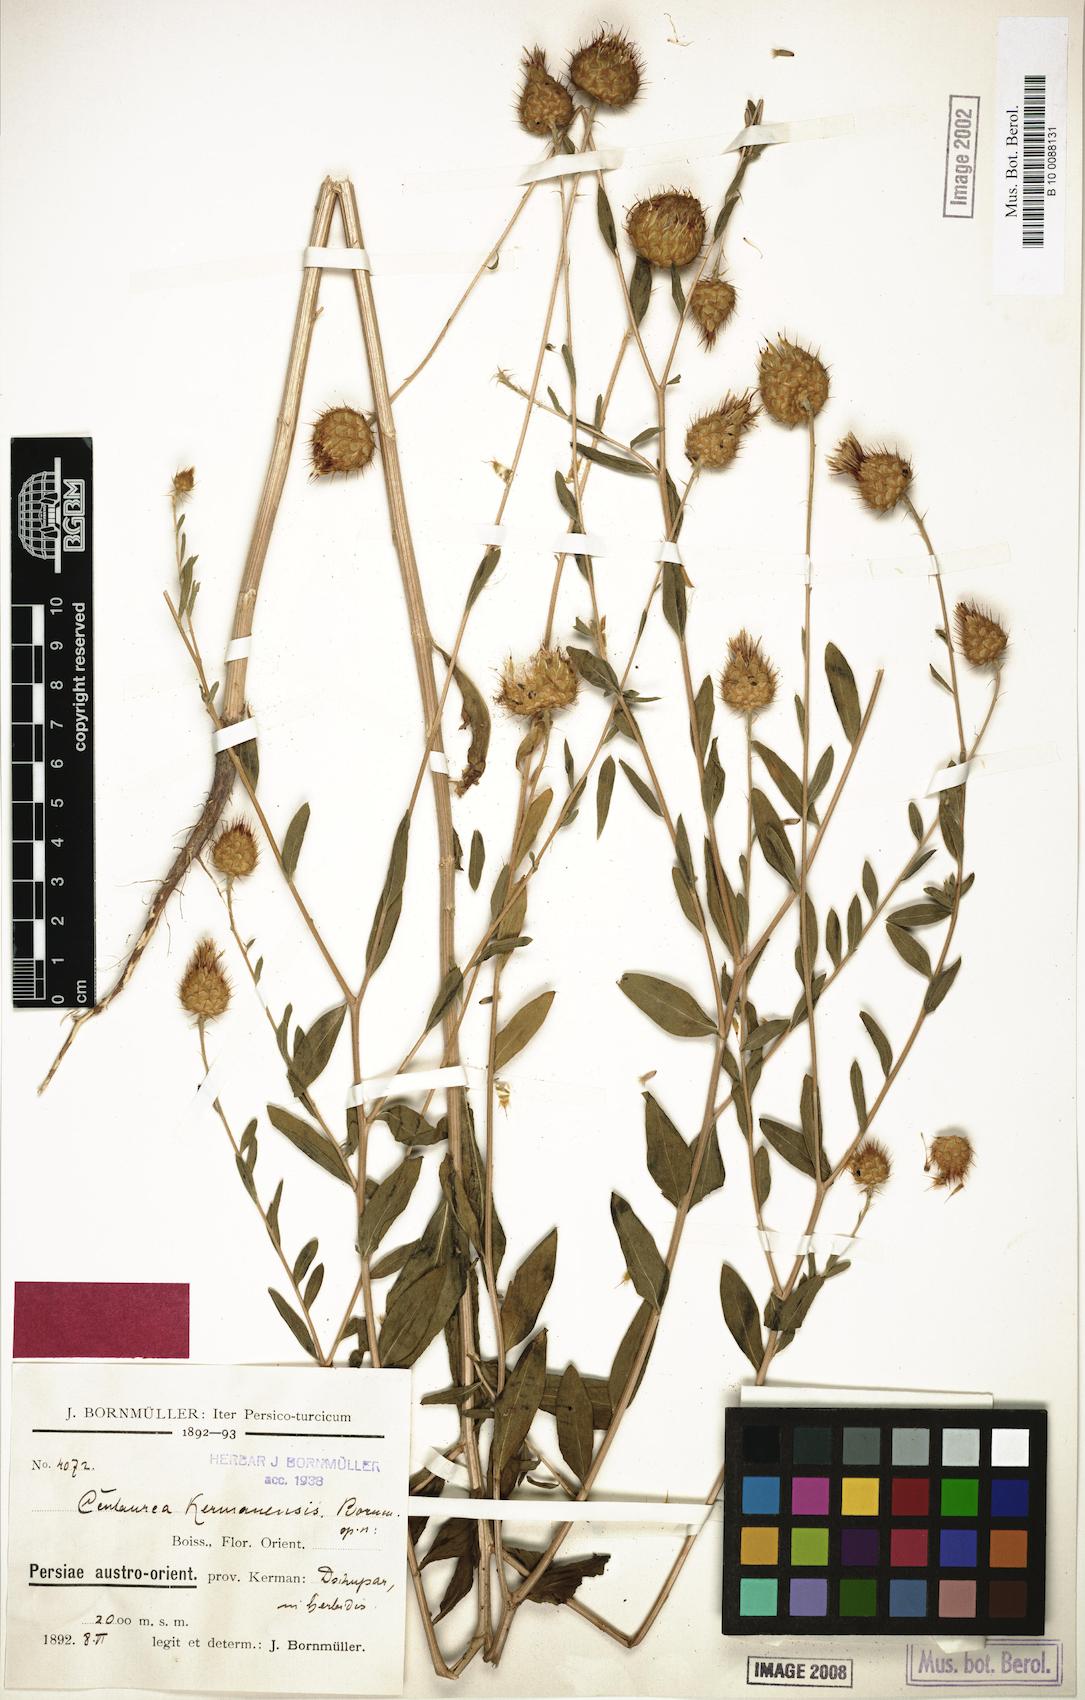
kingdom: Plantae
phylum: Tracheophyta
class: Magnoliopsida
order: Asterales
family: Asteraceae
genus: Stizolophus
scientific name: Stizolophus kermanensis
